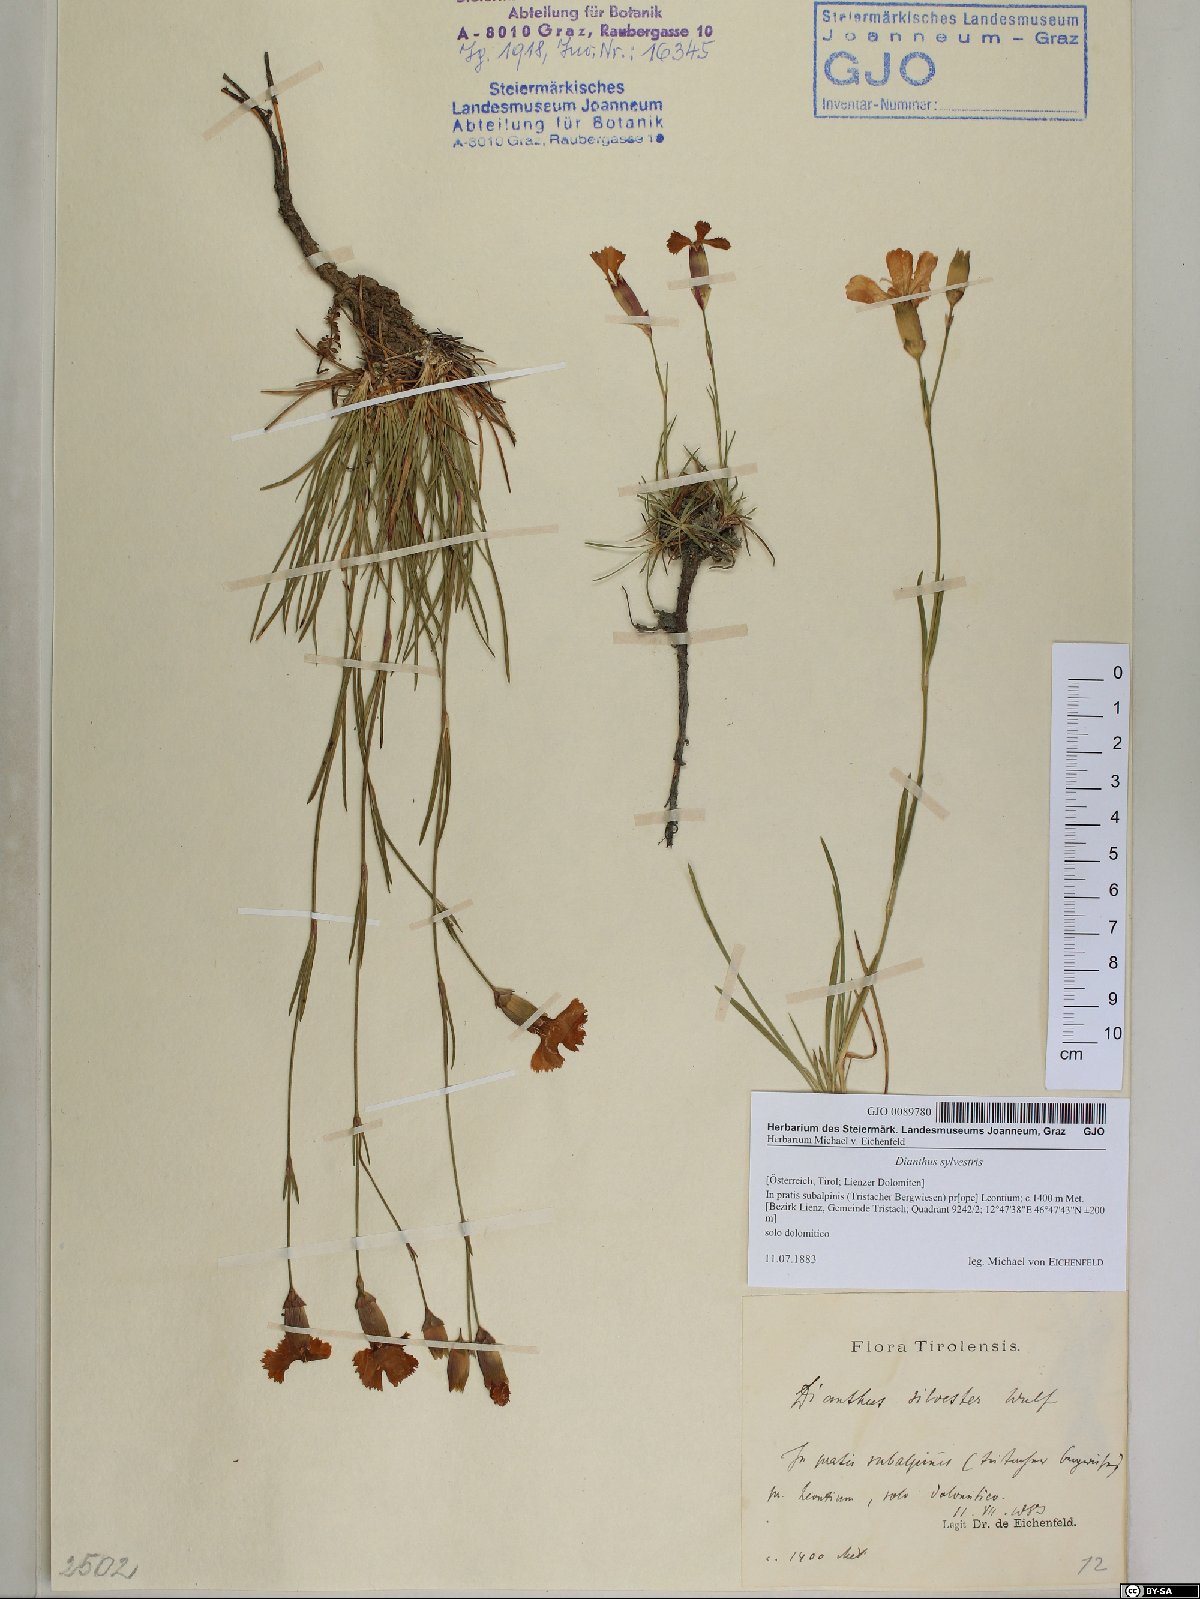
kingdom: Plantae
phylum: Tracheophyta
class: Magnoliopsida
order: Caryophyllales
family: Caryophyllaceae
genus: Dianthus
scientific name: Dianthus sylvestris
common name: Wood pink
